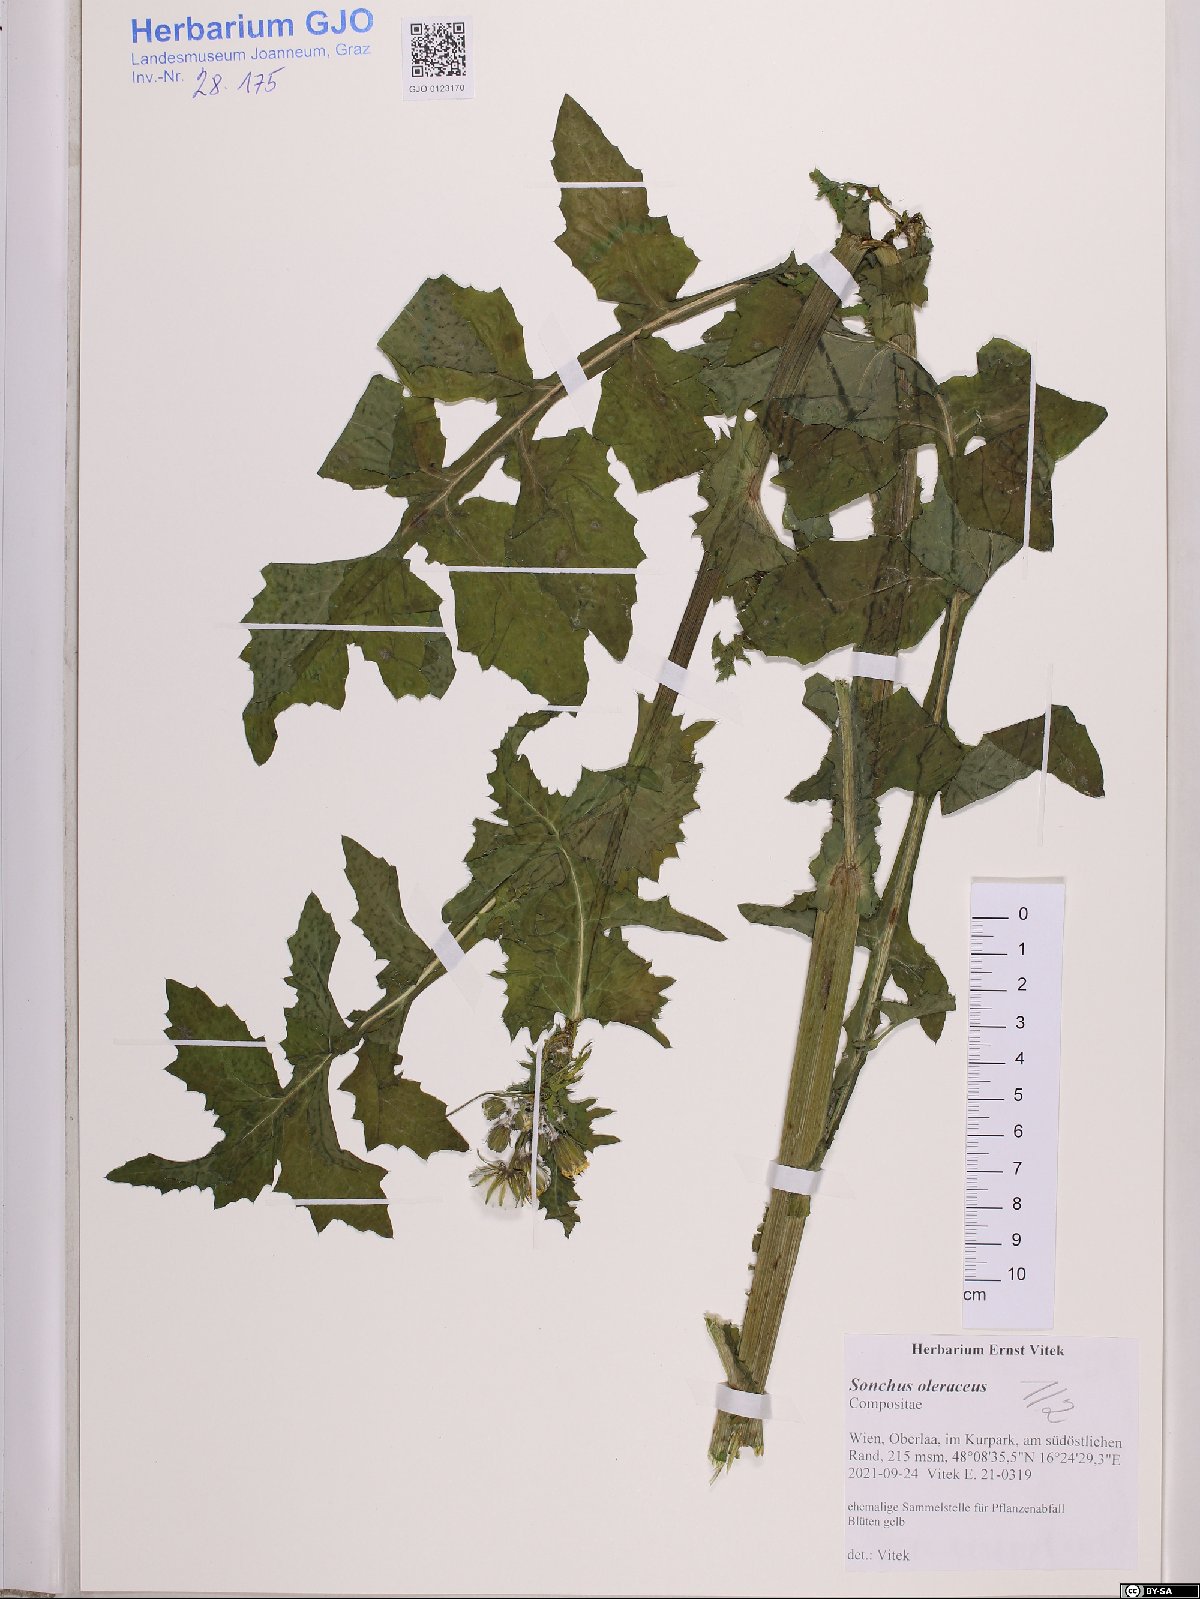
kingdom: Plantae
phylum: Tracheophyta
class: Magnoliopsida
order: Asterales
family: Asteraceae
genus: Sonchus
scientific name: Sonchus oleraceus
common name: Common sowthistle
